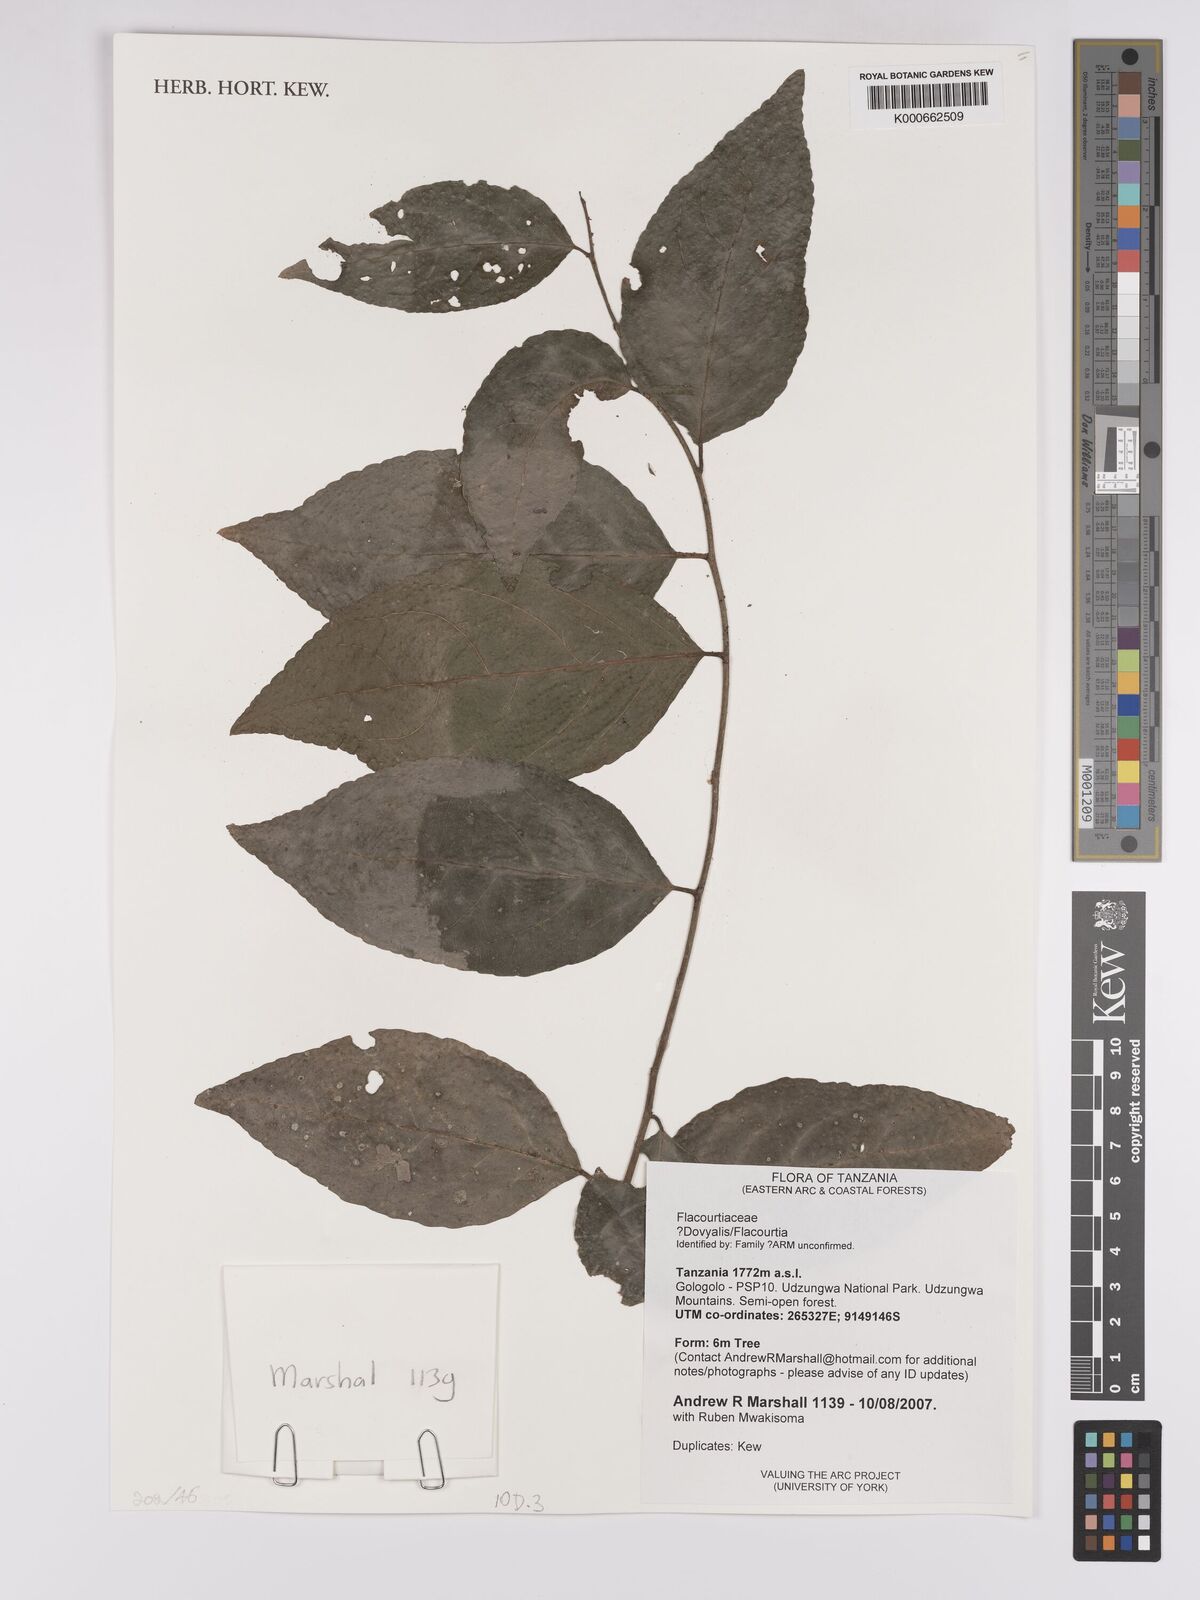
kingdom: Plantae
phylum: Tracheophyta
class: Magnoliopsida
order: Malpighiales
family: Salicaceae
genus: Flacourtia
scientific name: Flacourtia
